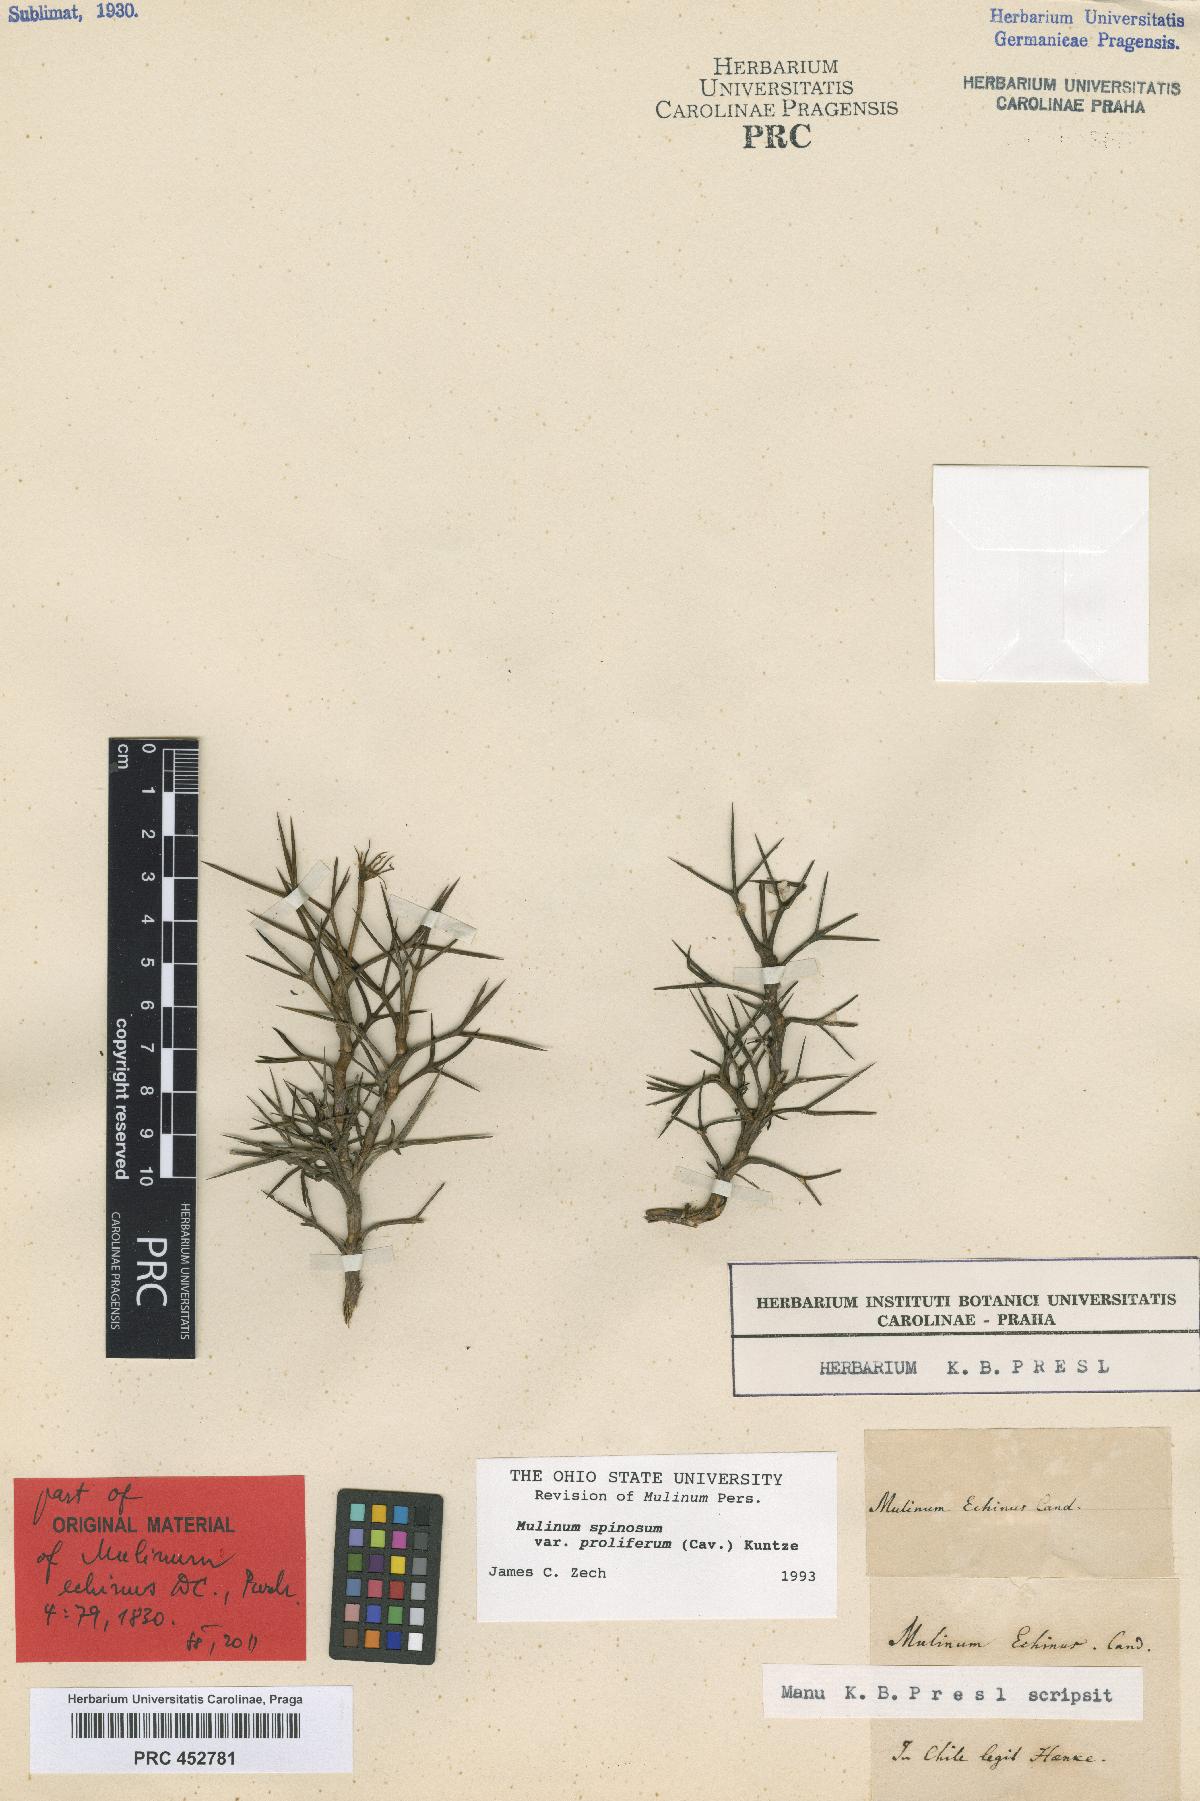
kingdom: Plantae
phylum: Tracheophyta
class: Magnoliopsida
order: Apiales
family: Apiaceae
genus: Azorella
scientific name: Azorella echinus
